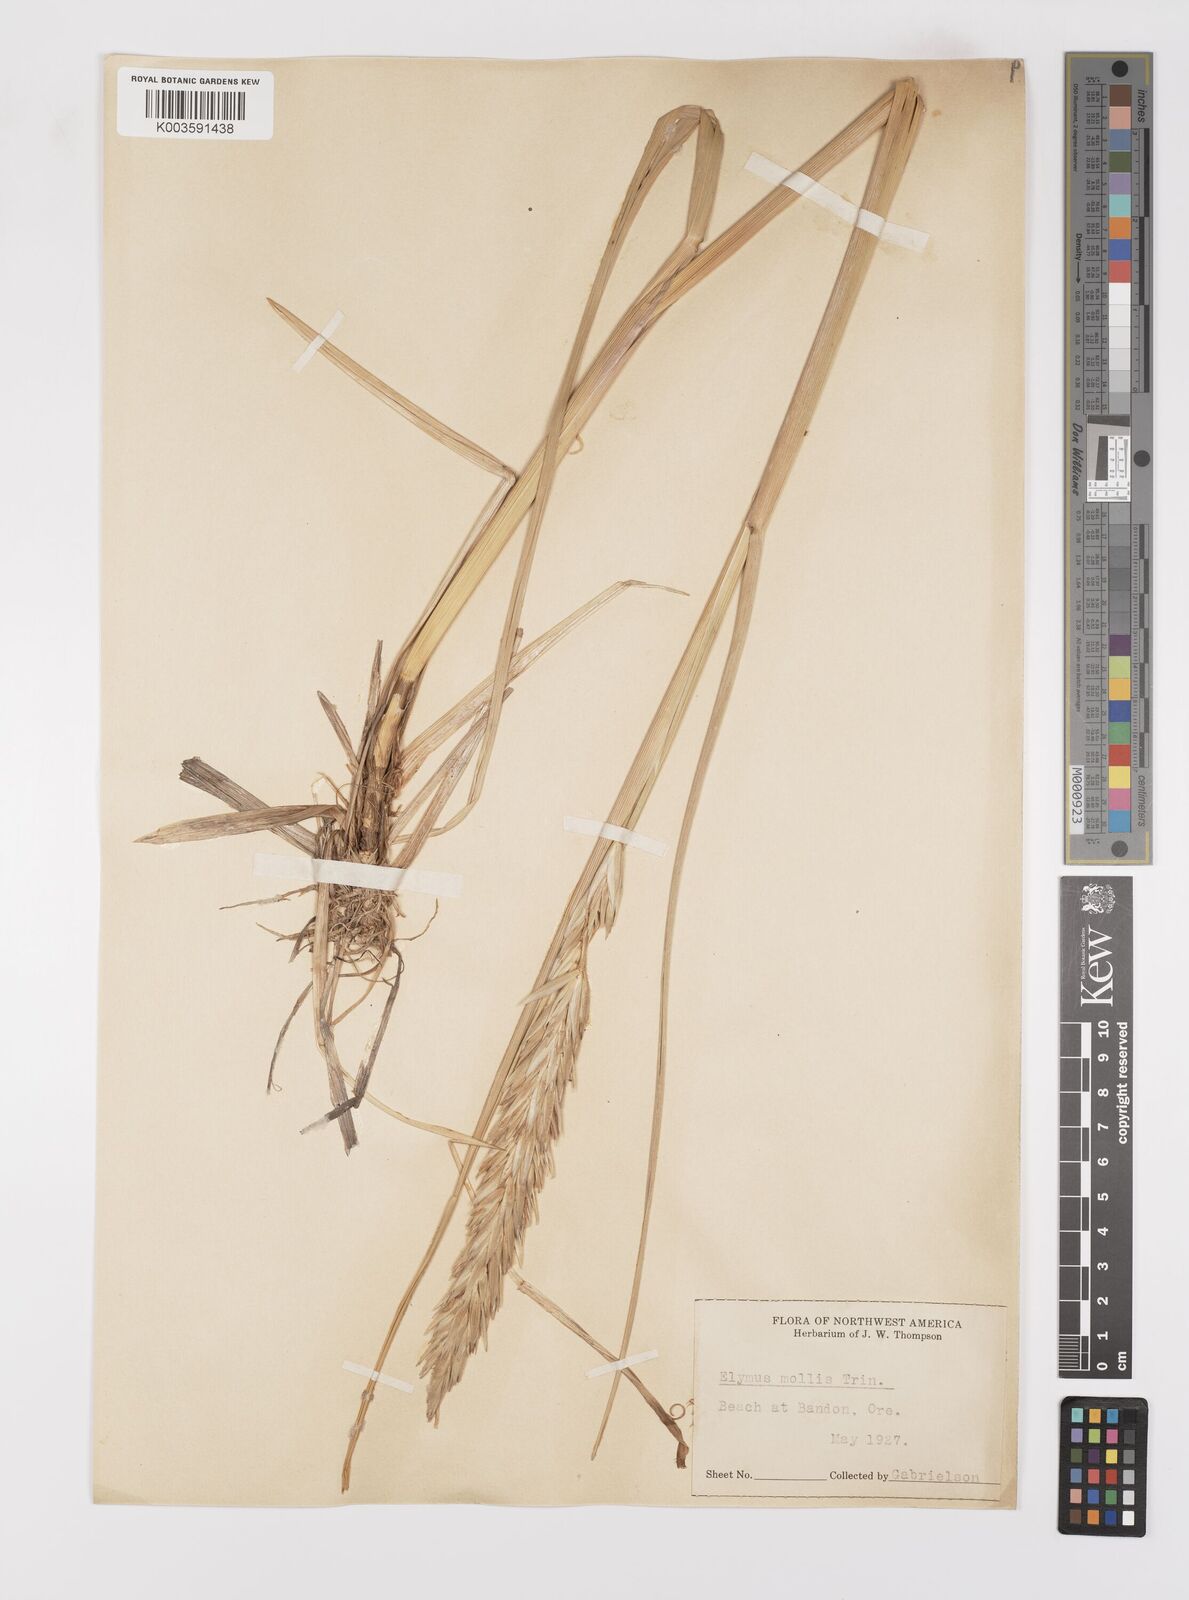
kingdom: Plantae
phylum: Tracheophyta
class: Liliopsida
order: Poales
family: Poaceae
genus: Leymus
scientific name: Leymus mollis
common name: American dune grass
